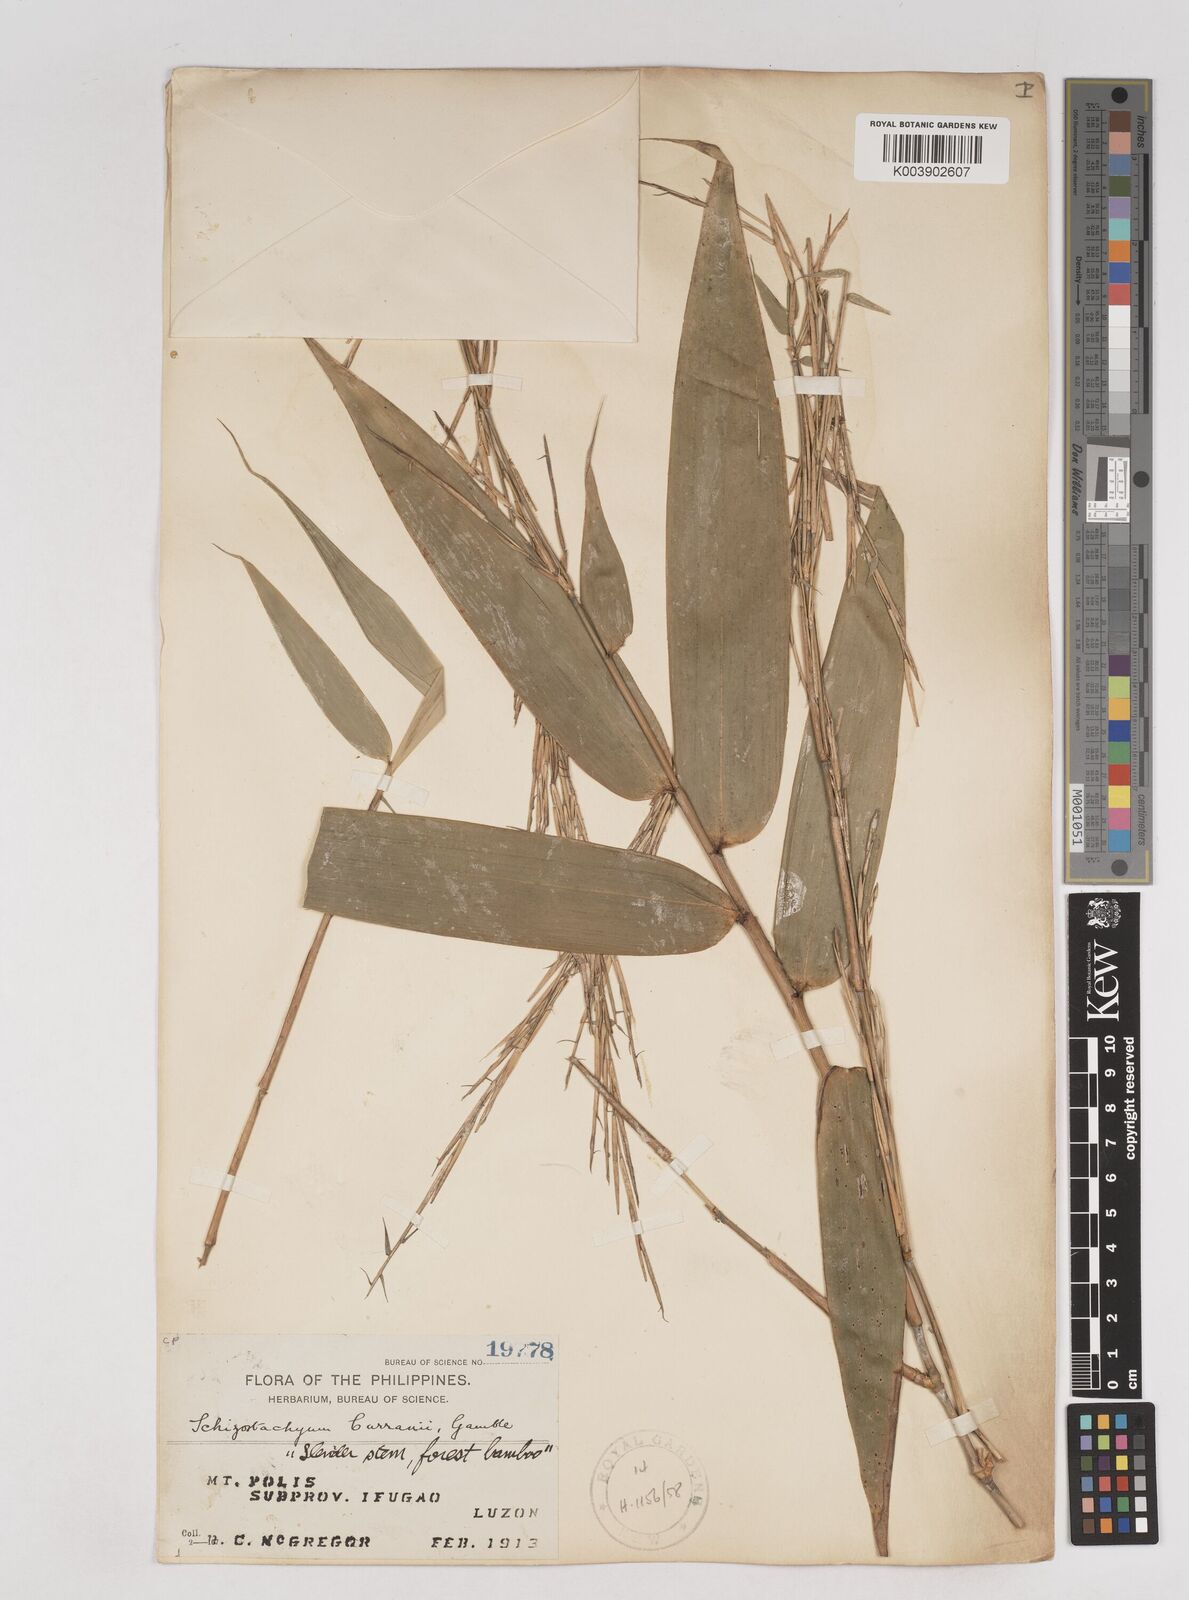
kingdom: Plantae
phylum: Tracheophyta
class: Liliopsida
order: Poales
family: Poaceae
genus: Schizostachyum
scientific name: Schizostachyum curranii
